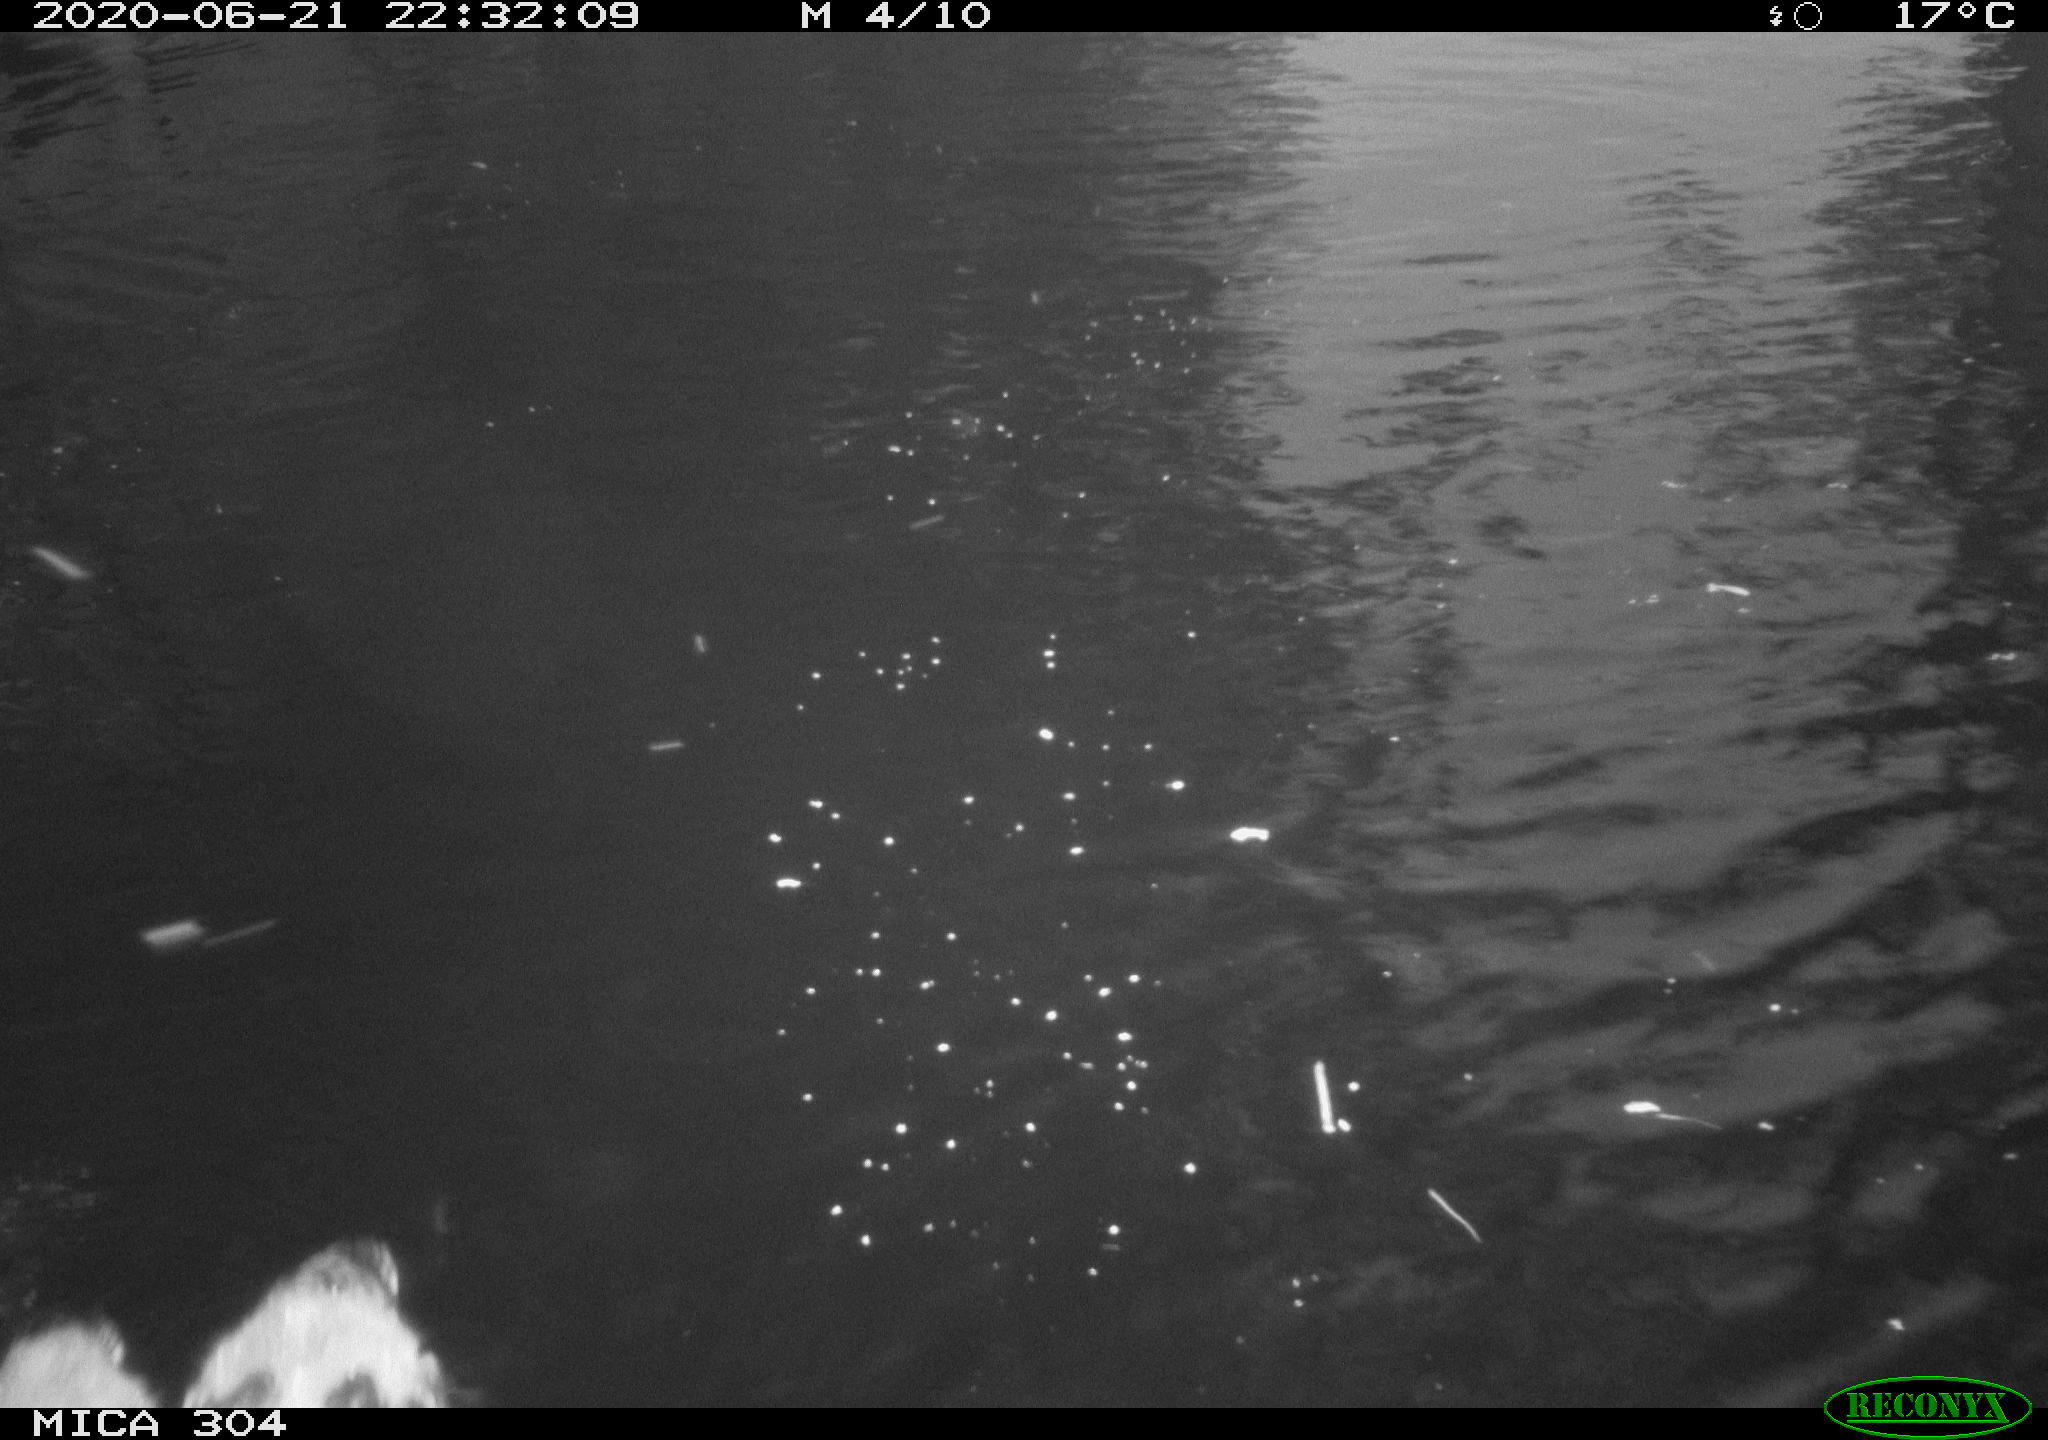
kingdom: Animalia
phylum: Chordata
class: Aves
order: Anseriformes
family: Anatidae
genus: Anas
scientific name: Anas platyrhynchos
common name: Mallard
